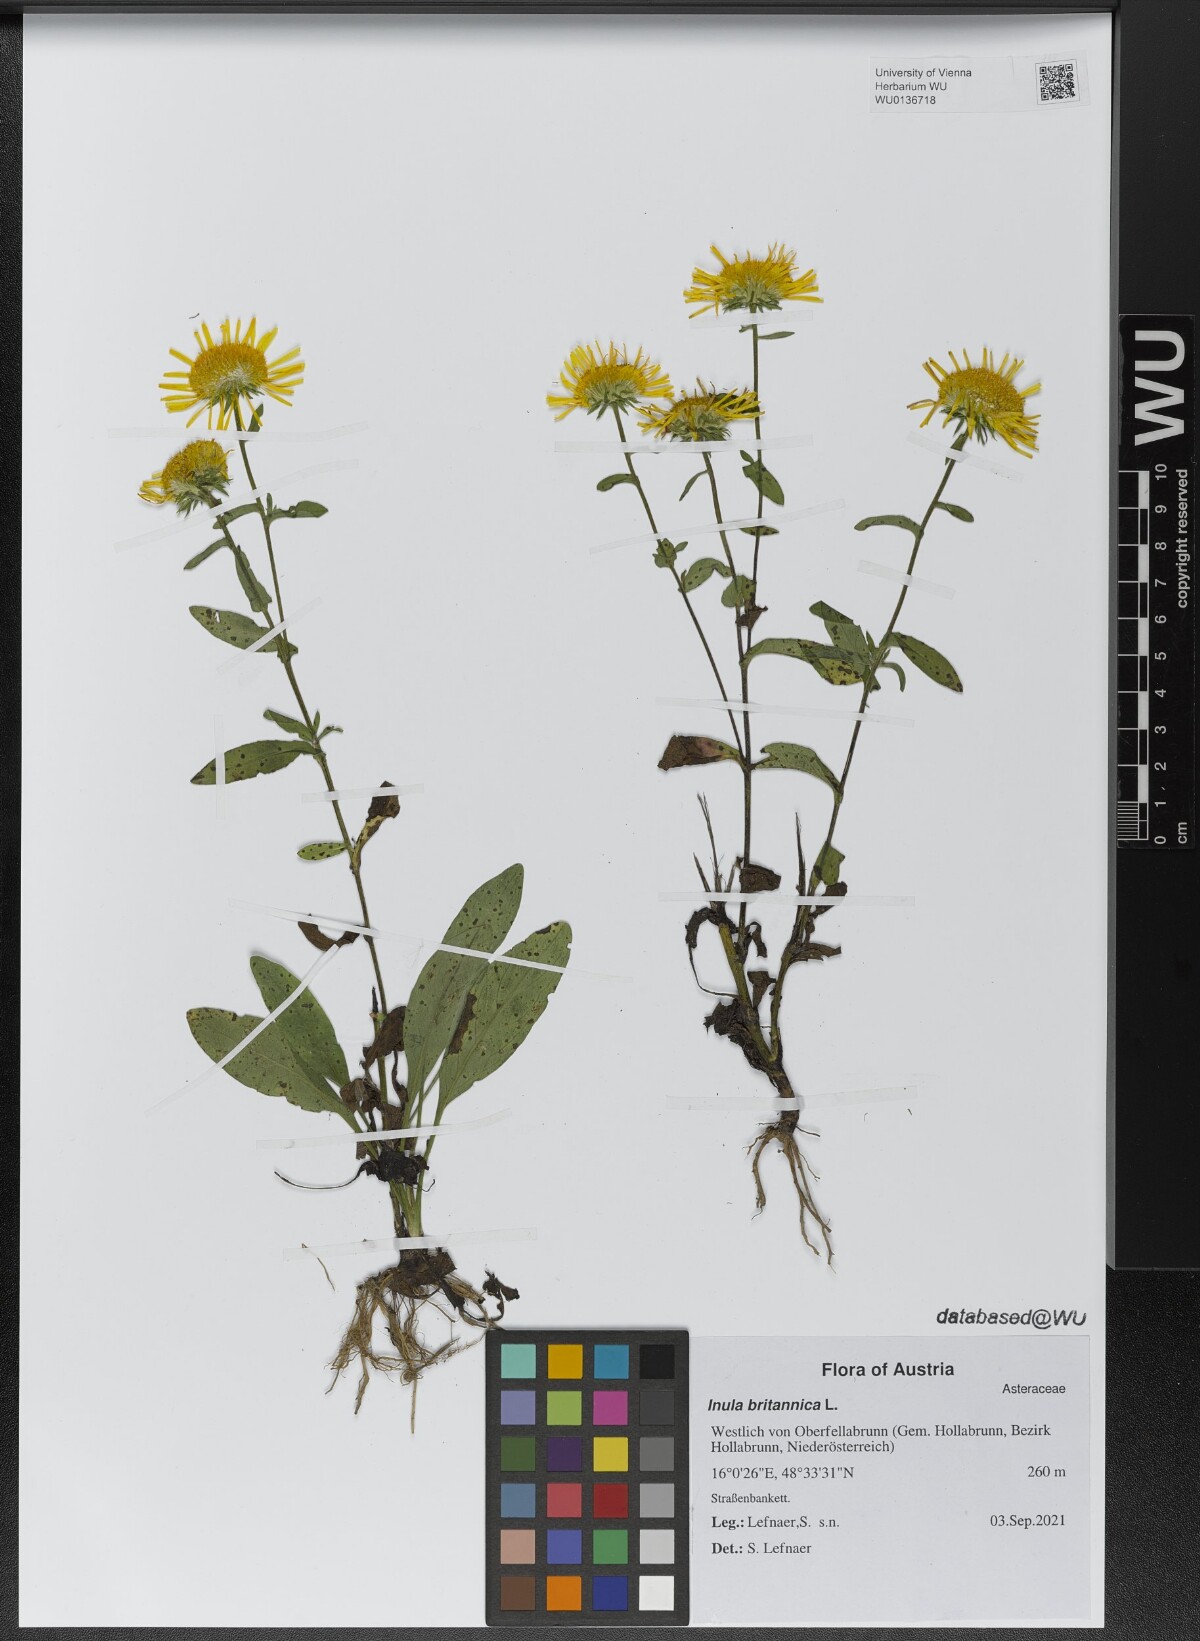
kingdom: Plantae
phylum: Tracheophyta
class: Magnoliopsida
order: Asterales
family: Asteraceae
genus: Pentanema
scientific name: Pentanema britannicum
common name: British elecampane
